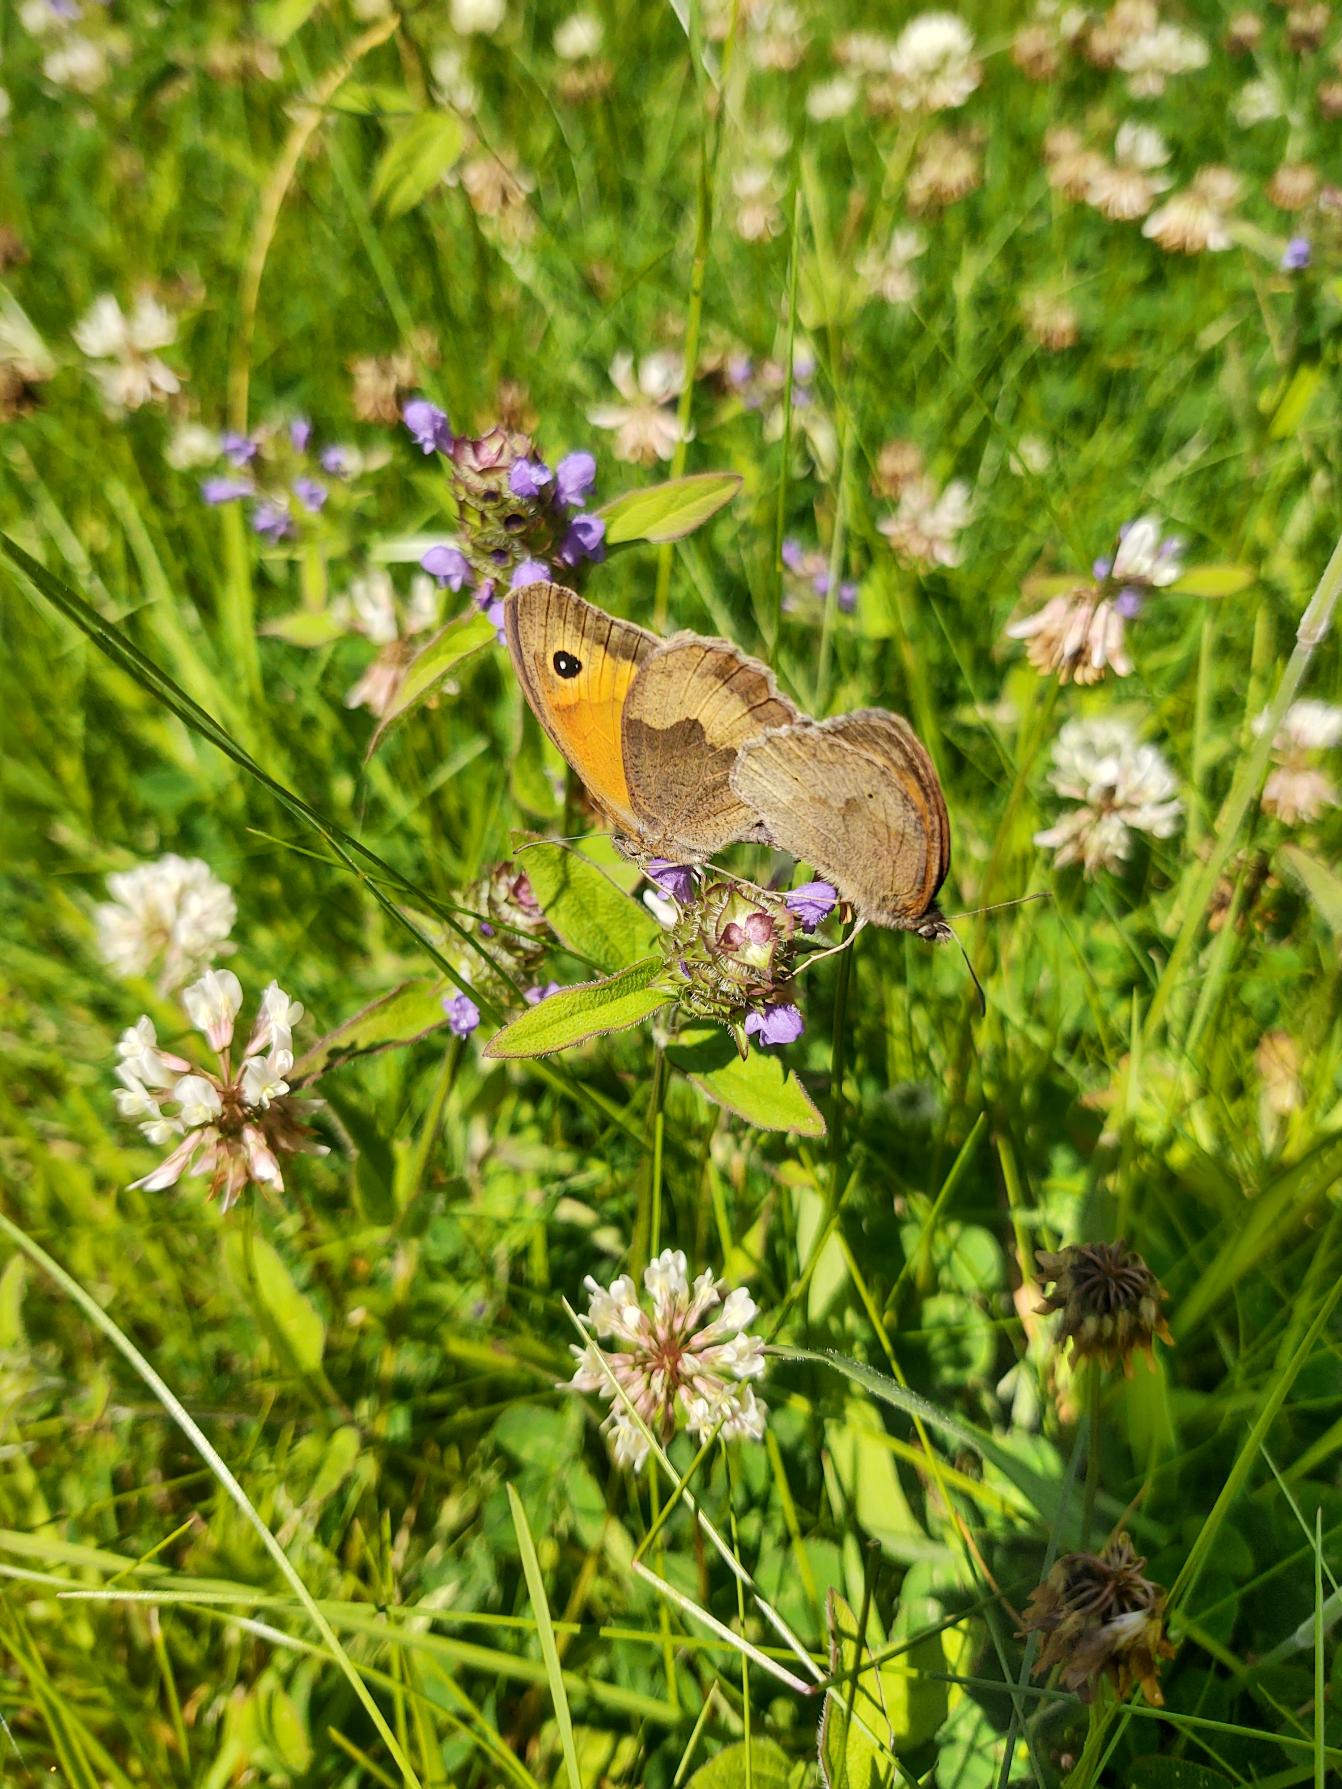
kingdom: Animalia
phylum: Arthropoda
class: Insecta
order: Lepidoptera
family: Nymphalidae
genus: Maniola
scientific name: Maniola jurtina
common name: Græsrandøje
